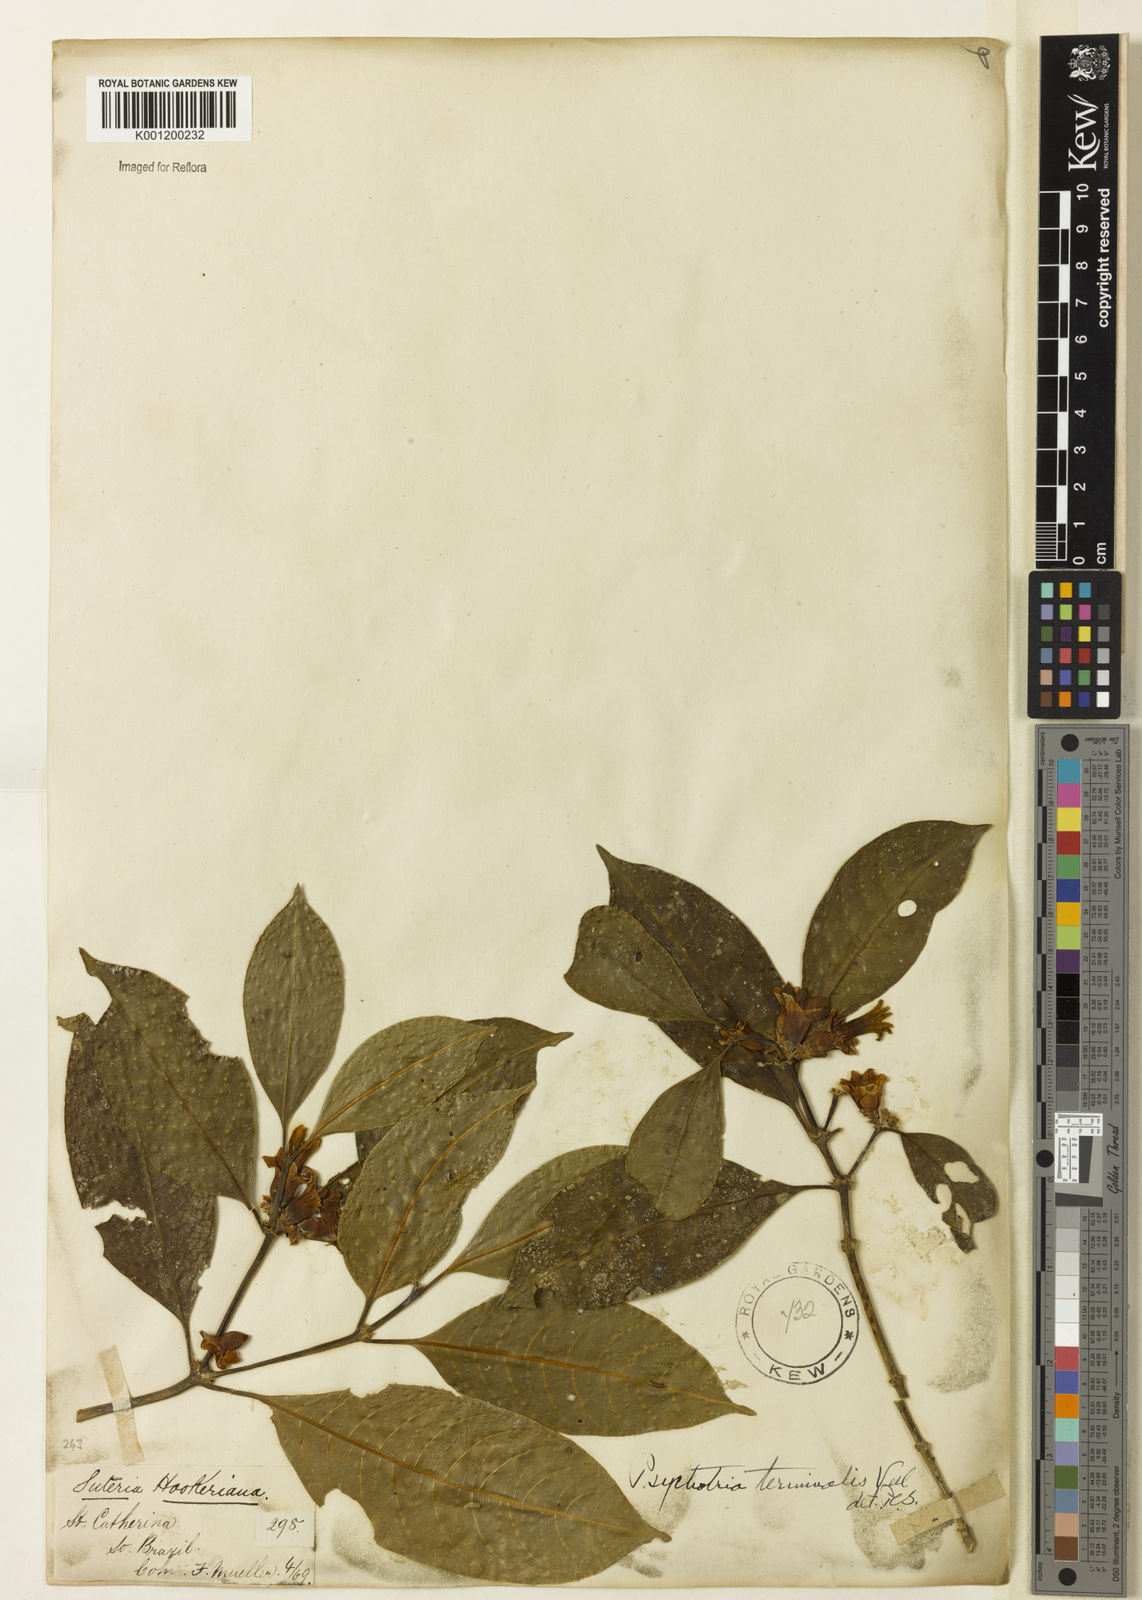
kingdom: Plantae
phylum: Tracheophyta
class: Magnoliopsida
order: Gentianales
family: Rubiaceae
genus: Psychotria
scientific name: Psychotria nuda
